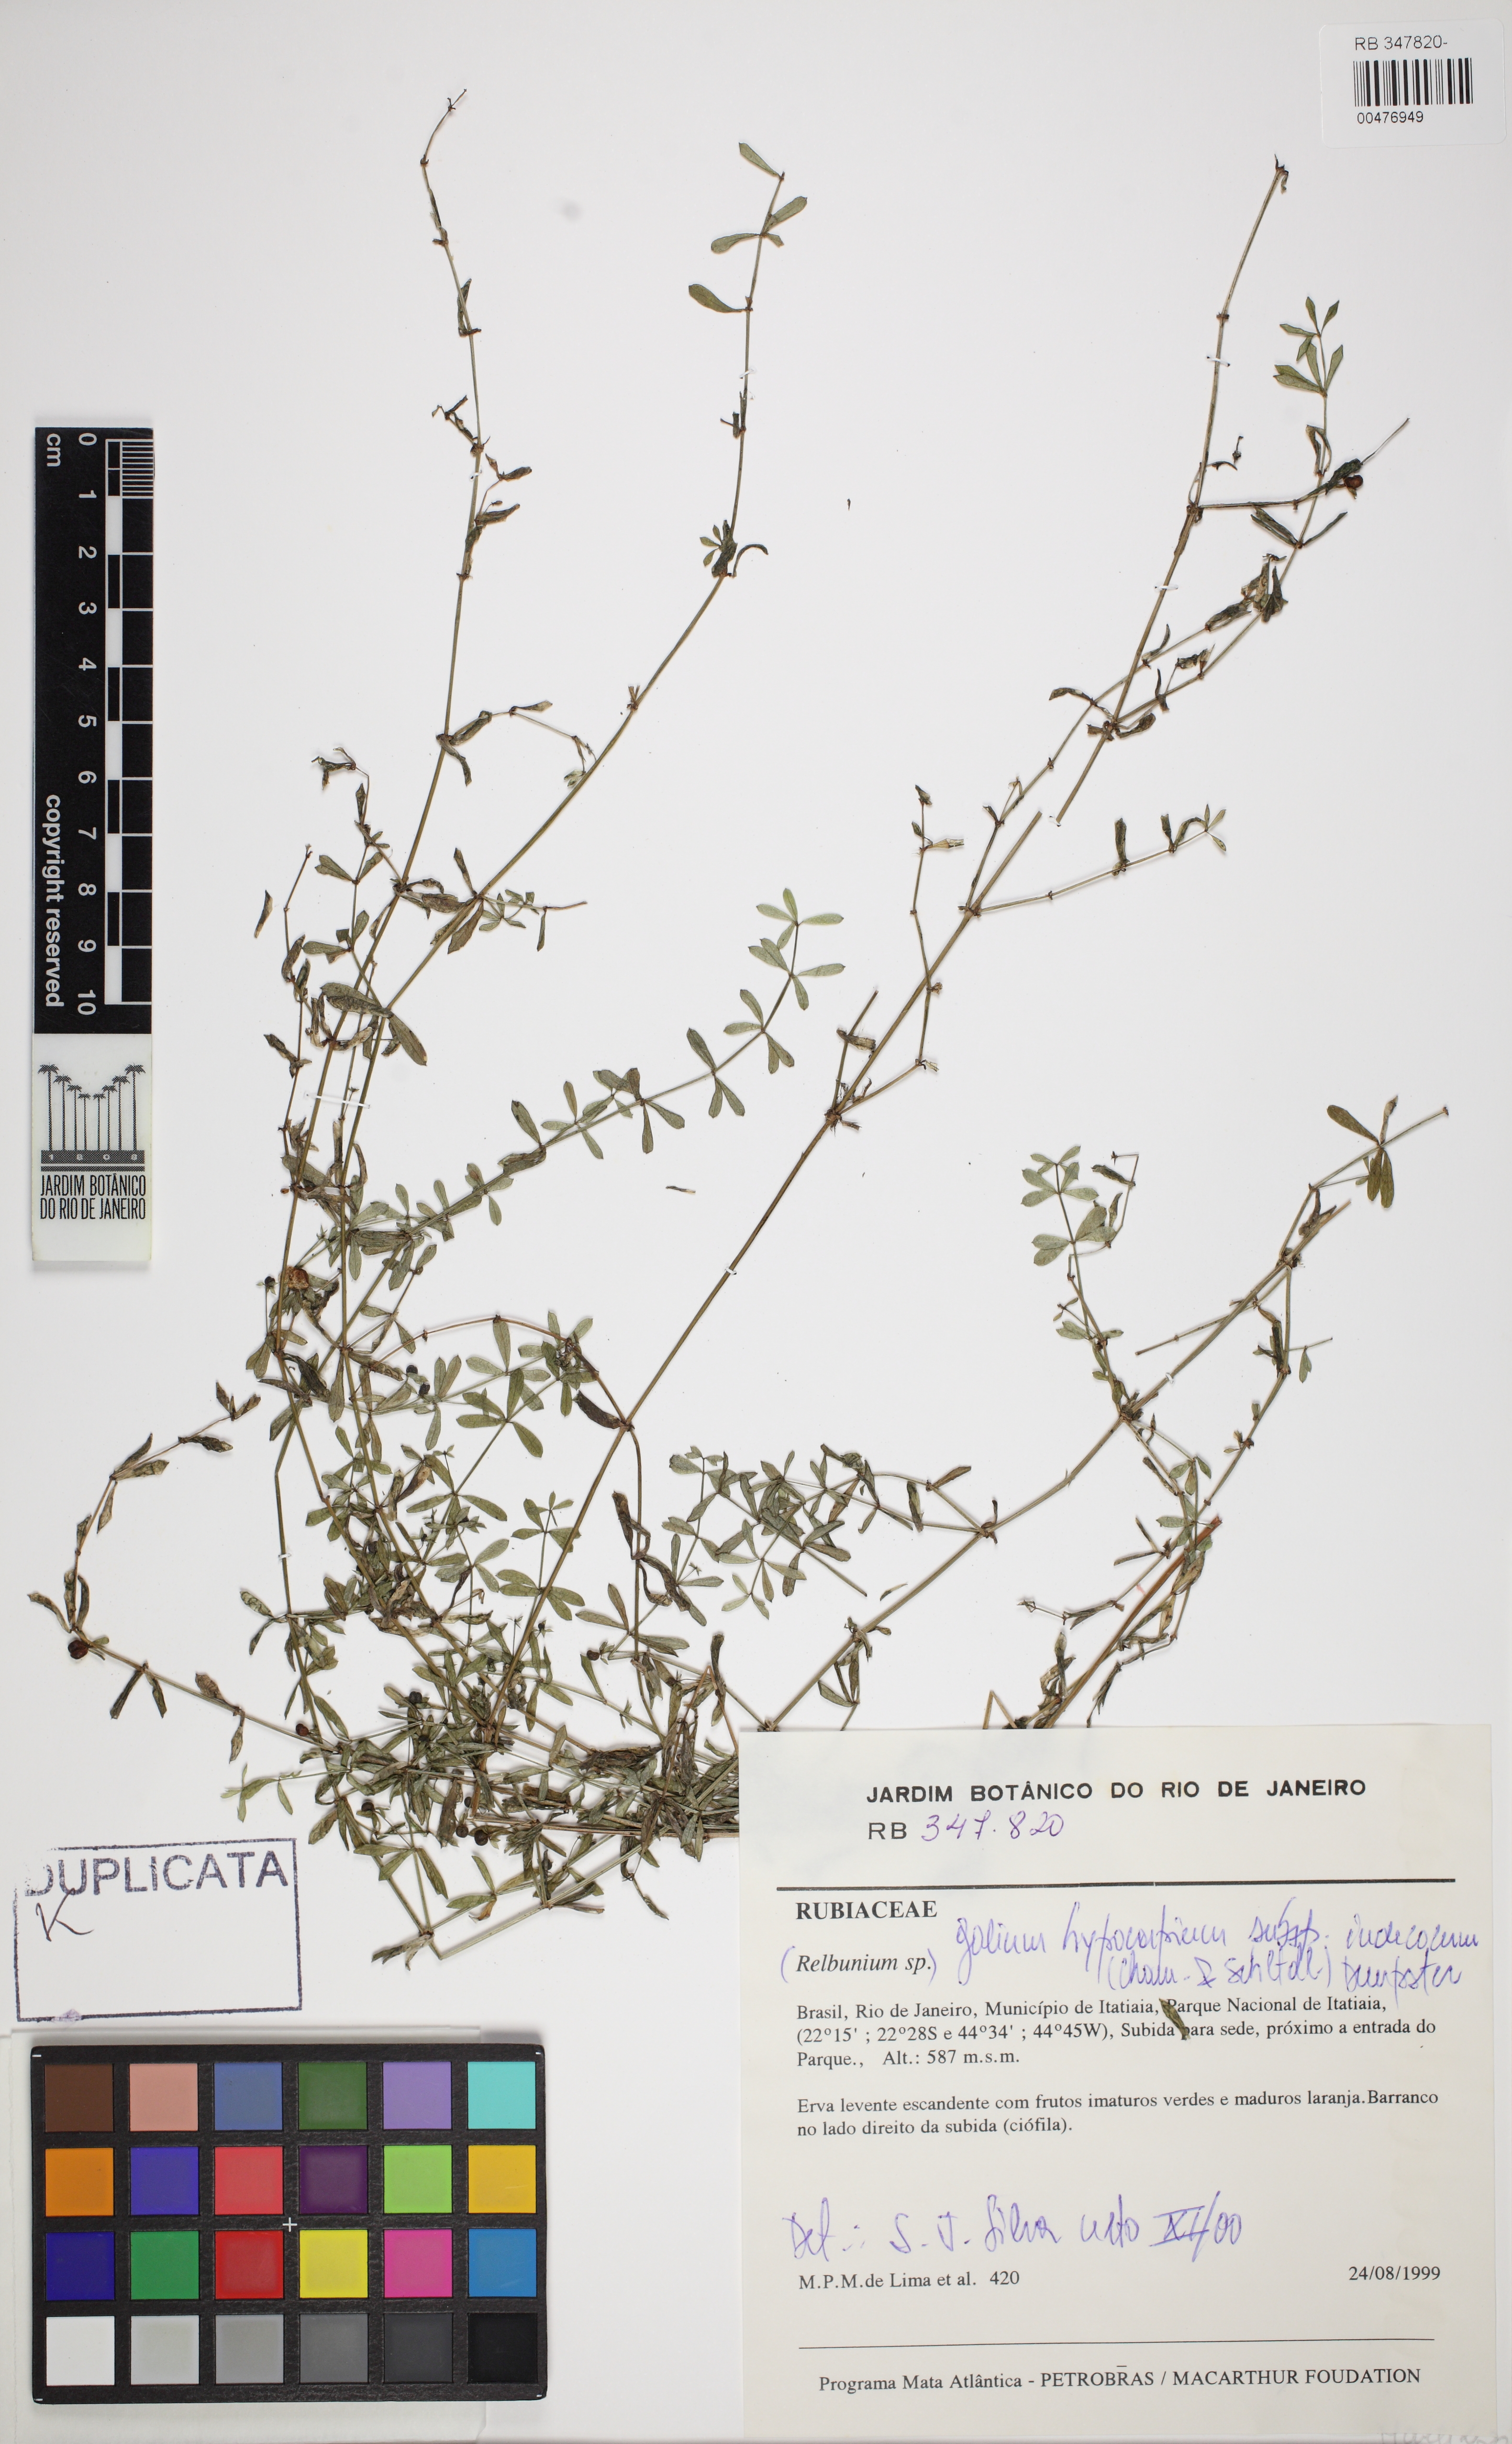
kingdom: Plantae
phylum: Tracheophyta
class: Magnoliopsida
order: Gentianales
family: Rubiaceae
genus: Galium
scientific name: Galium hypocarpium
